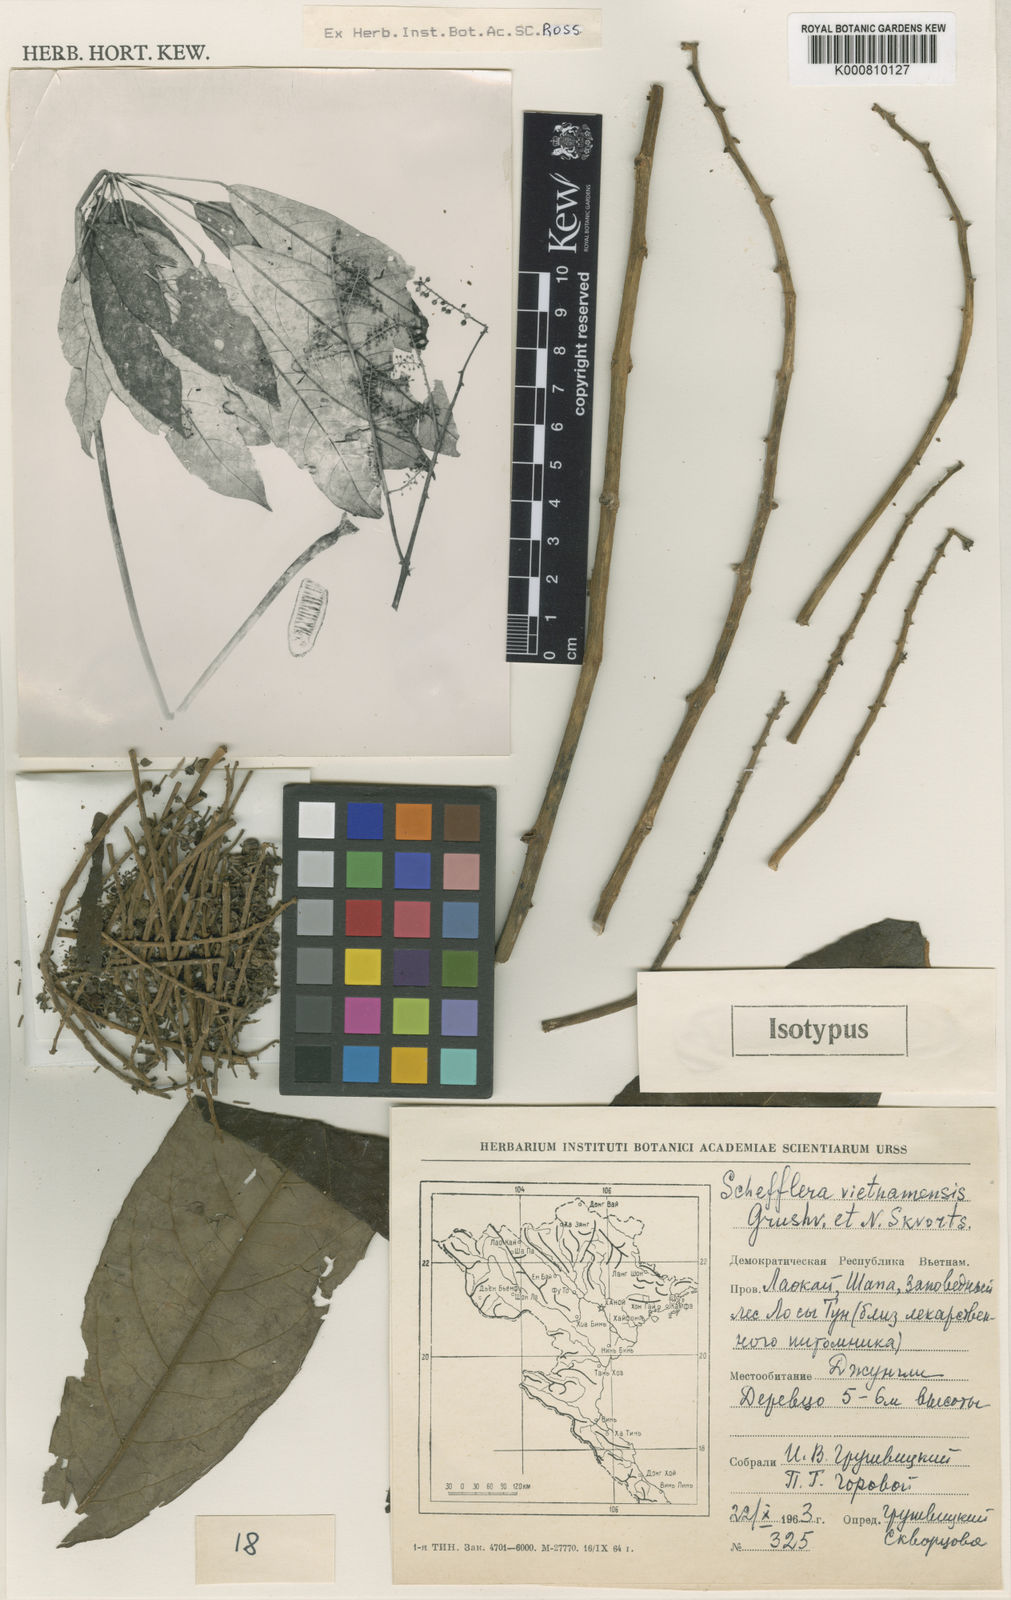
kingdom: Plantae
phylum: Tracheophyta
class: Magnoliopsida
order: Apiales
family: Araliaceae
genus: Heptapleurum
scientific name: Heptapleurum chapanum
